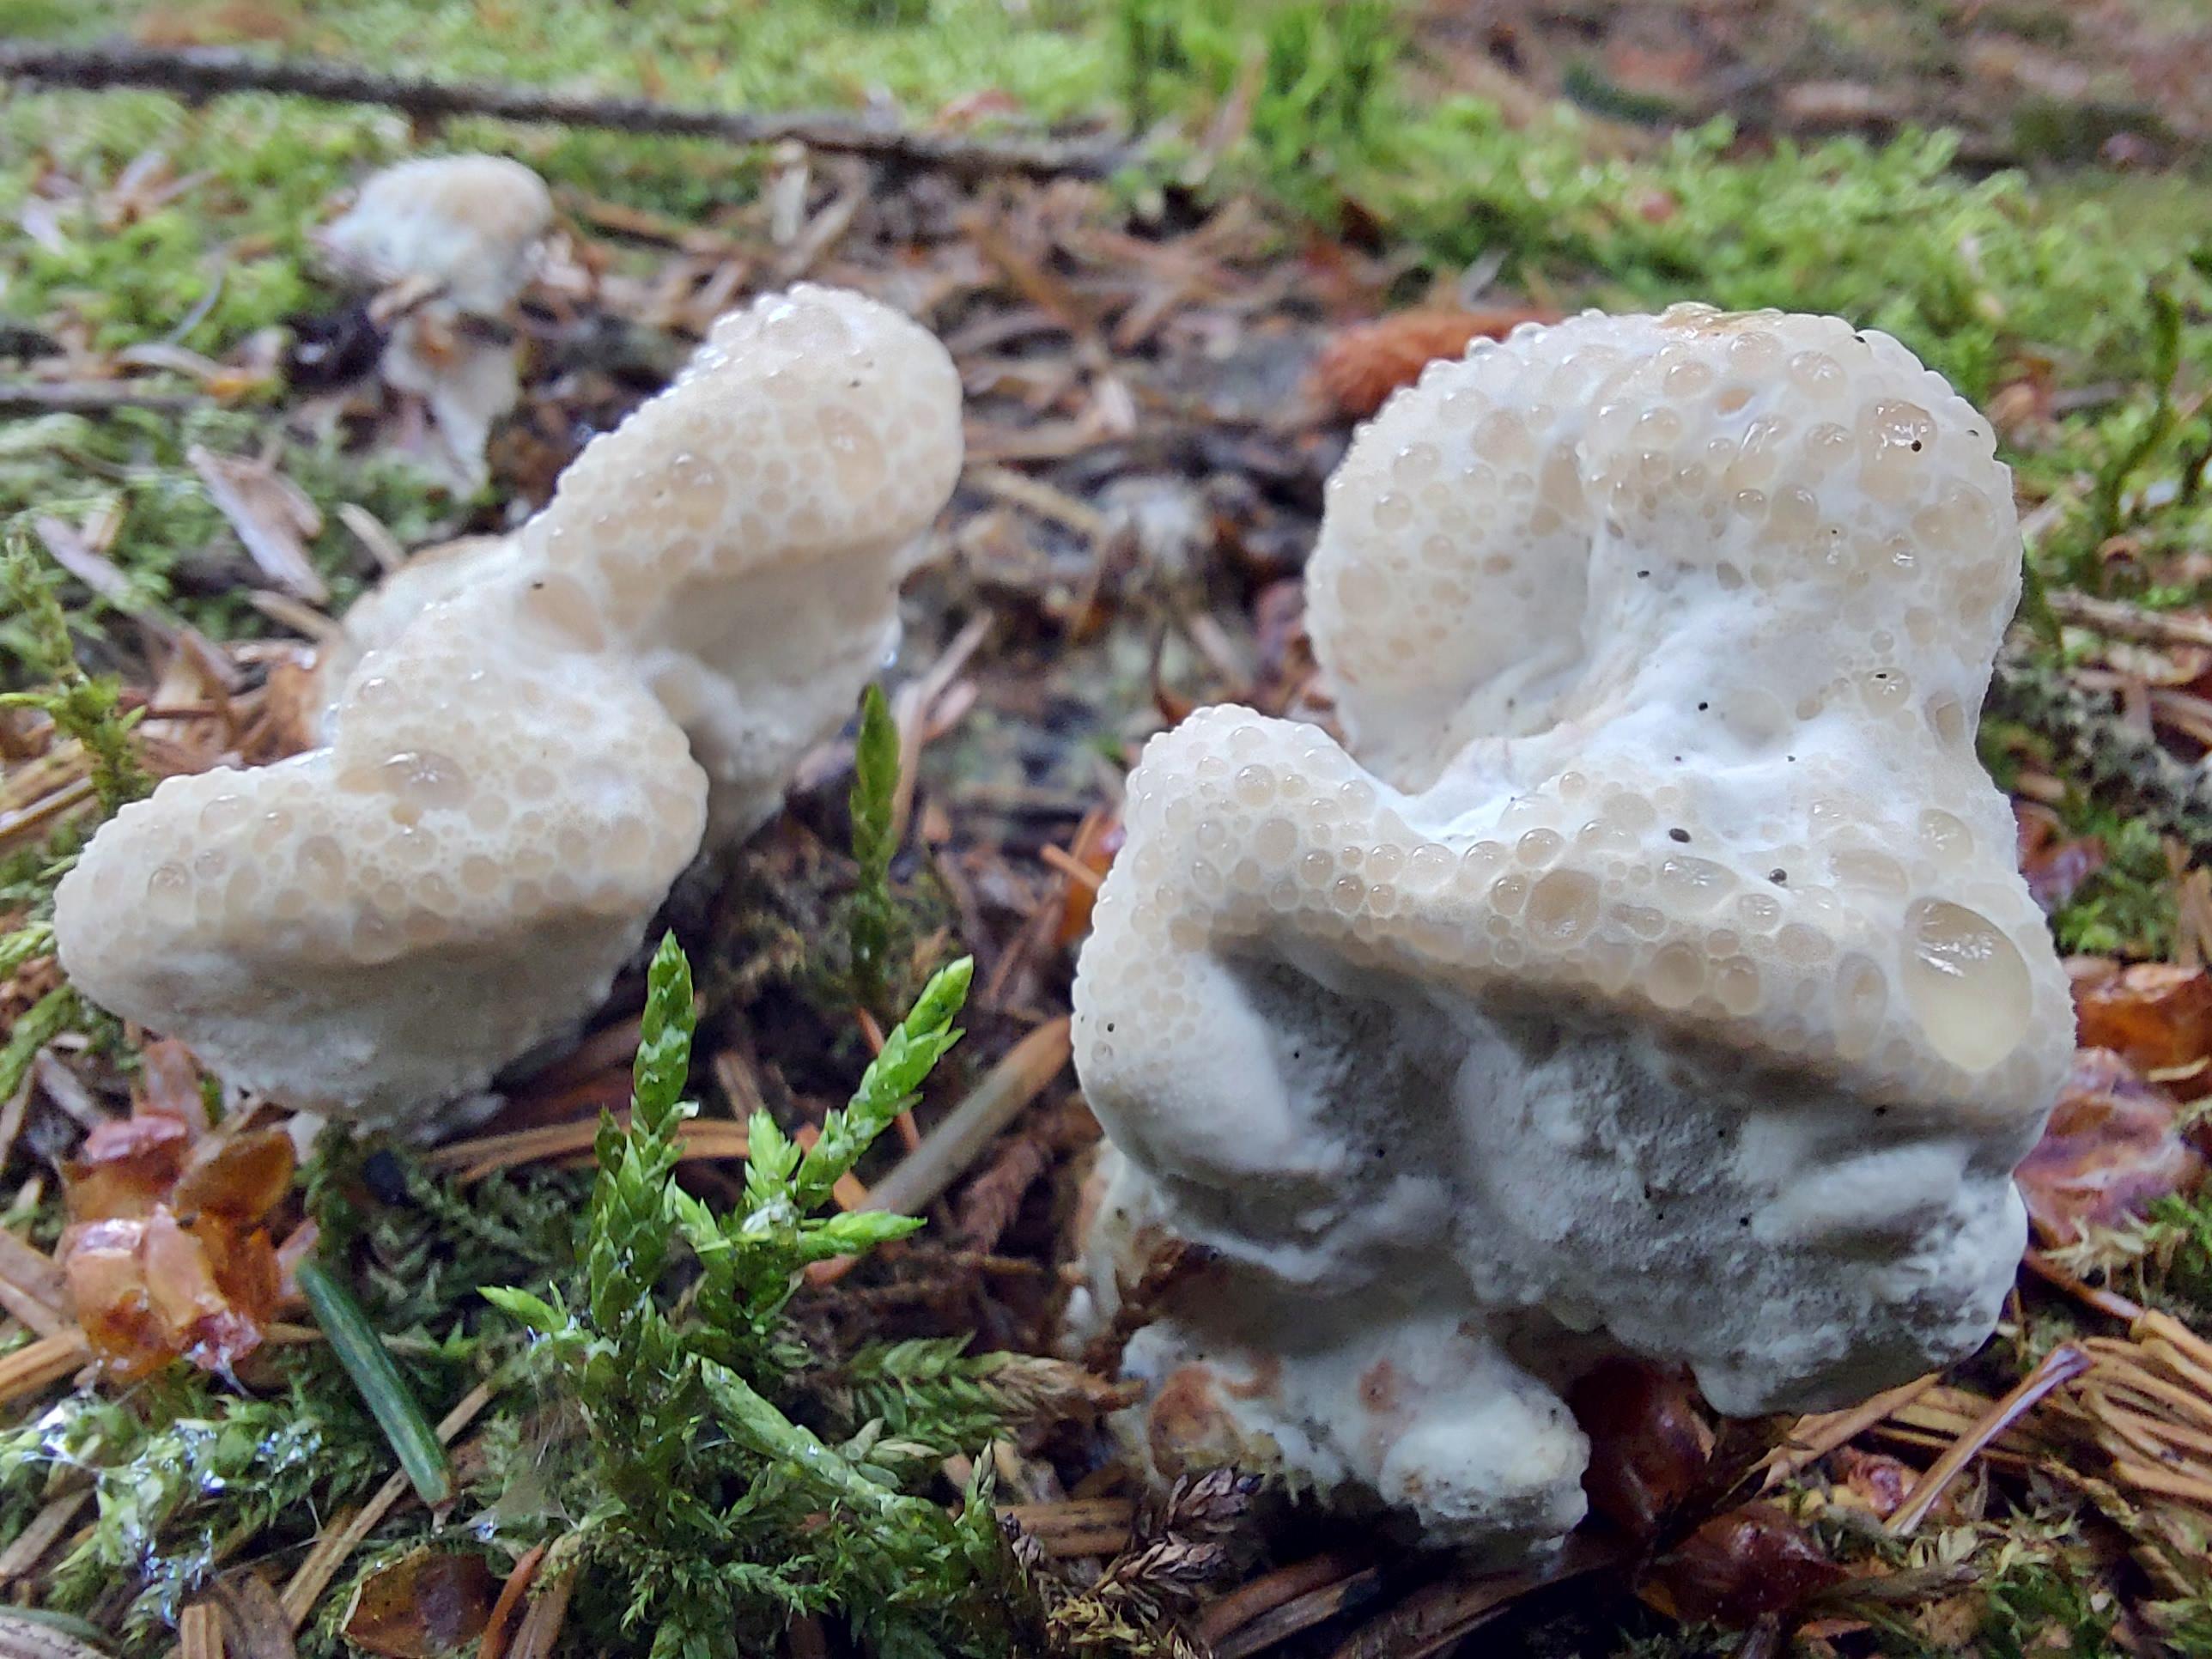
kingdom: Fungi
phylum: Basidiomycota
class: Agaricomycetes
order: Polyporales
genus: Calcipostia
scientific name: Calcipostia guttulata
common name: dråbe-kødporesvamp
